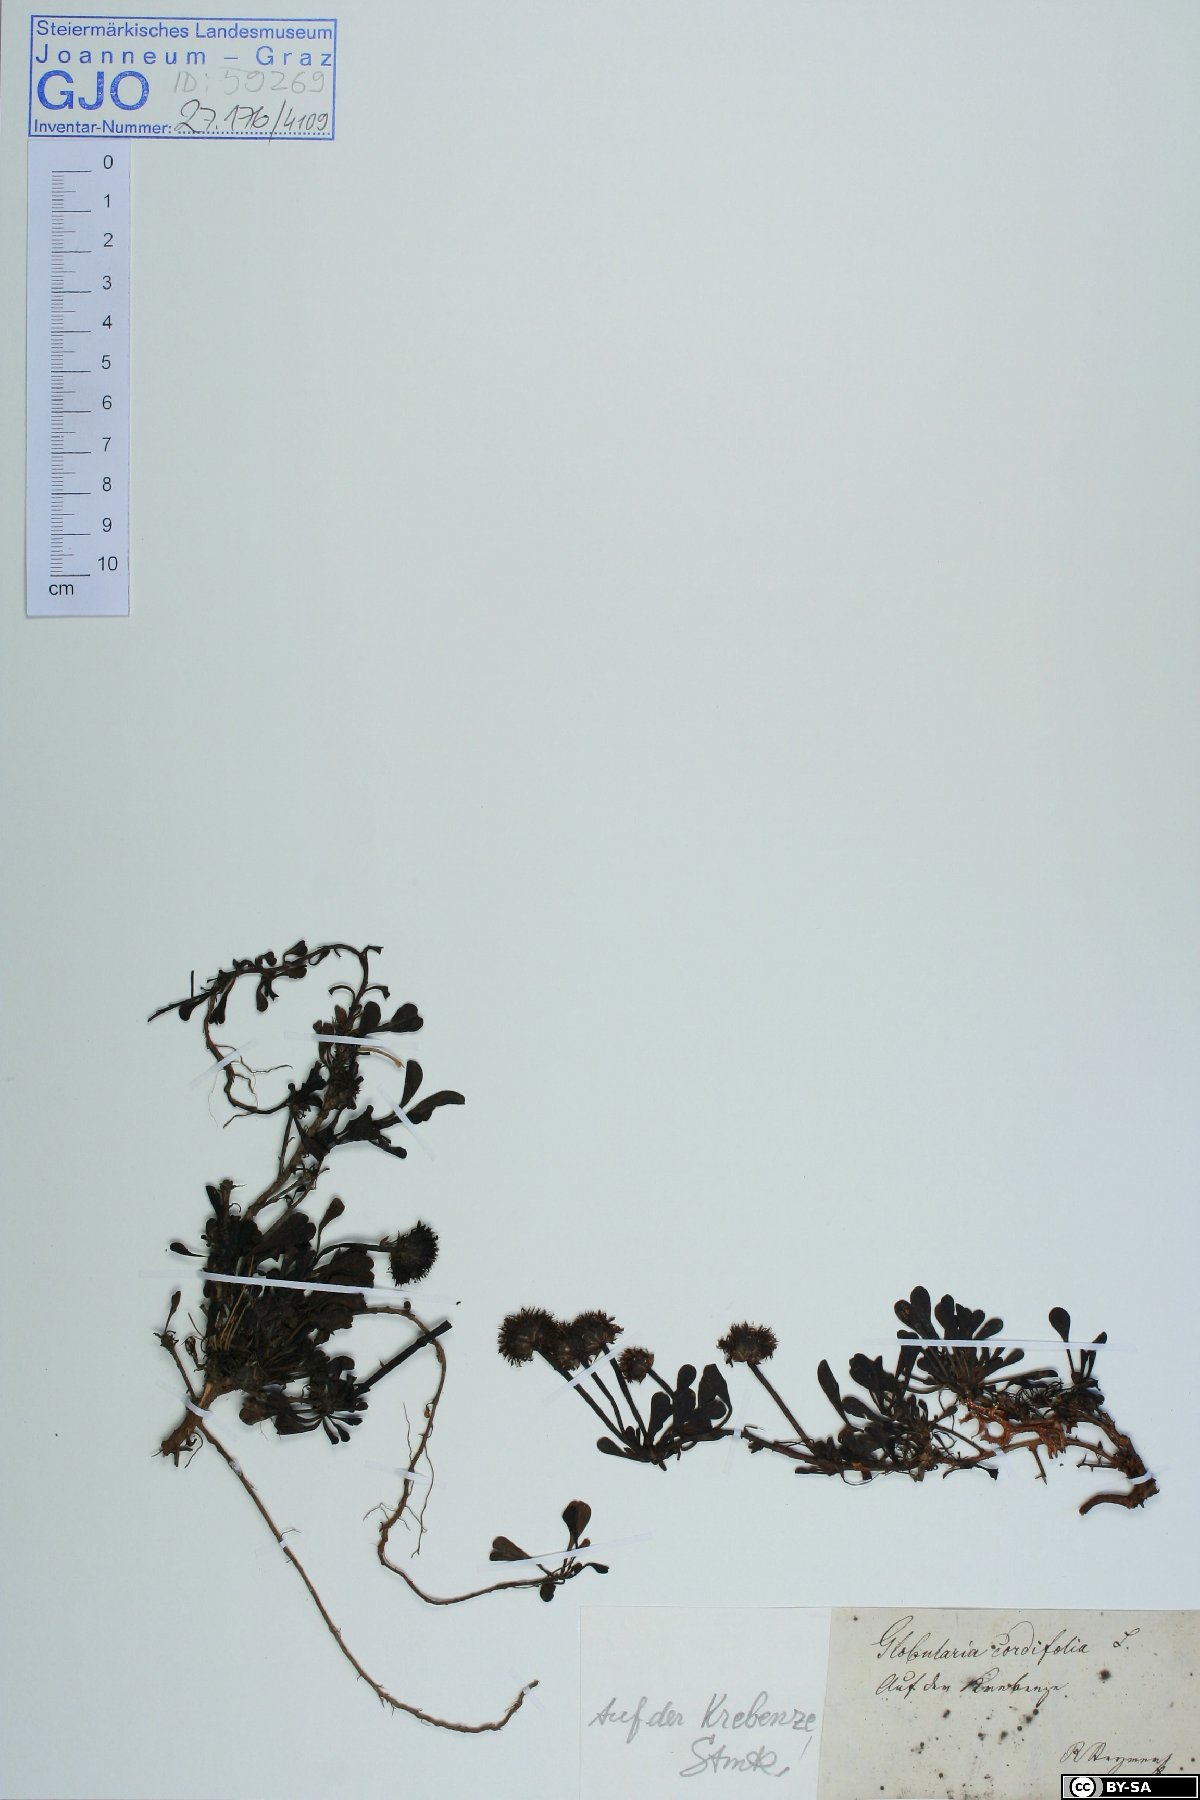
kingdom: Plantae
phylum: Tracheophyta
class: Magnoliopsida
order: Lamiales
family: Plantaginaceae
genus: Globularia
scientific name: Globularia cordifolia
